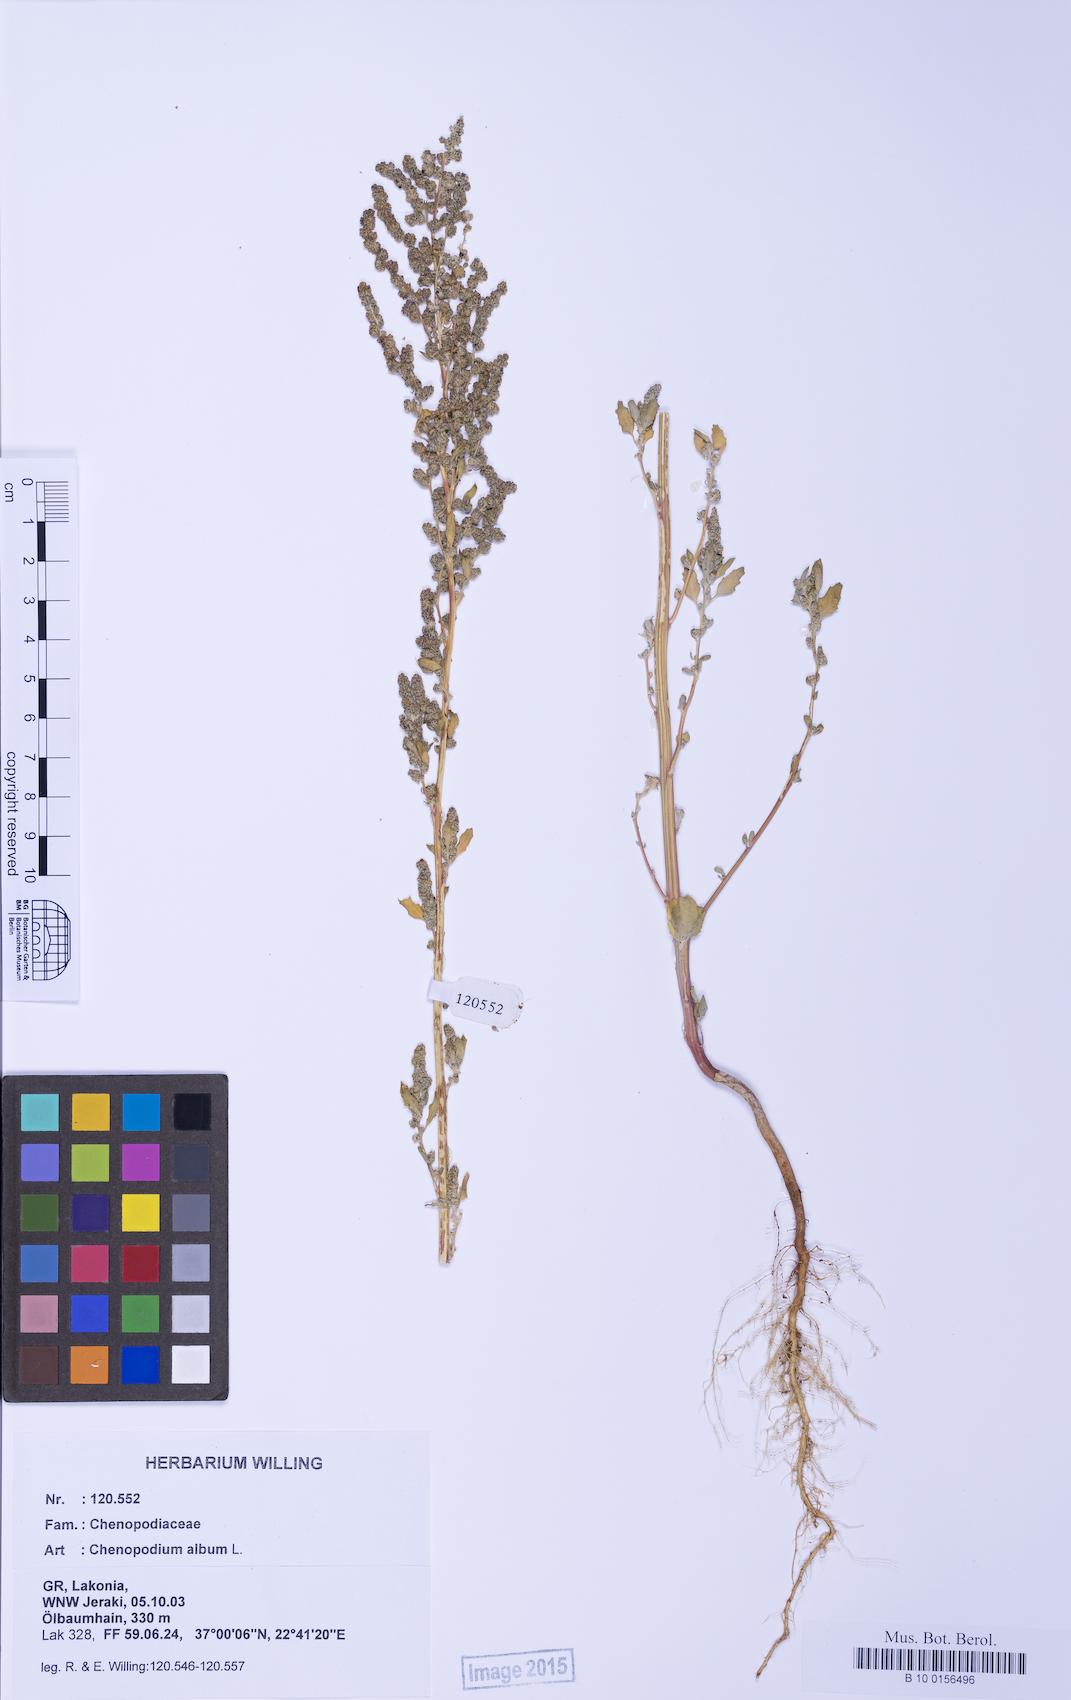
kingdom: Plantae
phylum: Tracheophyta
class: Magnoliopsida
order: Caryophyllales
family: Amaranthaceae
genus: Chenopodium
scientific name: Chenopodium album
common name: Fat-hen
